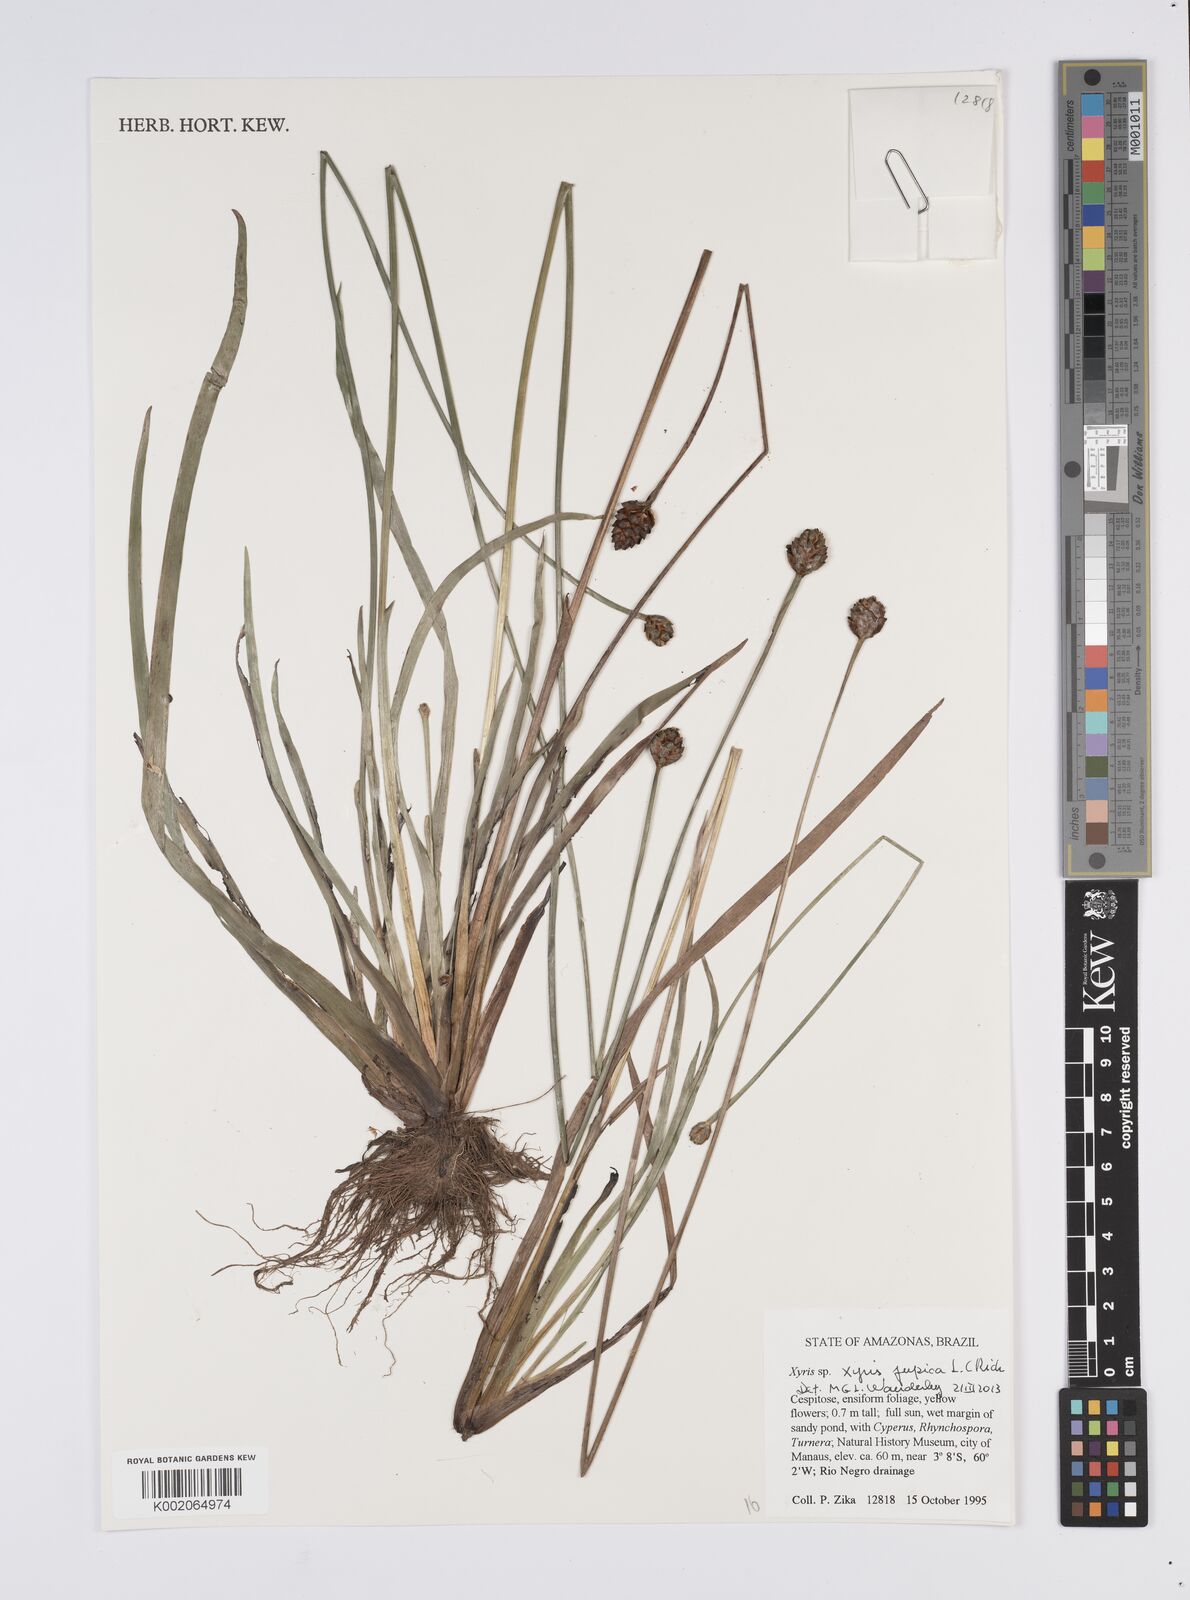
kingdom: Plantae
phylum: Tracheophyta
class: Liliopsida
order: Poales
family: Xyridaceae
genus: Xyris
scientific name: Xyris jupicai
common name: Richard's yelloweyed grass
